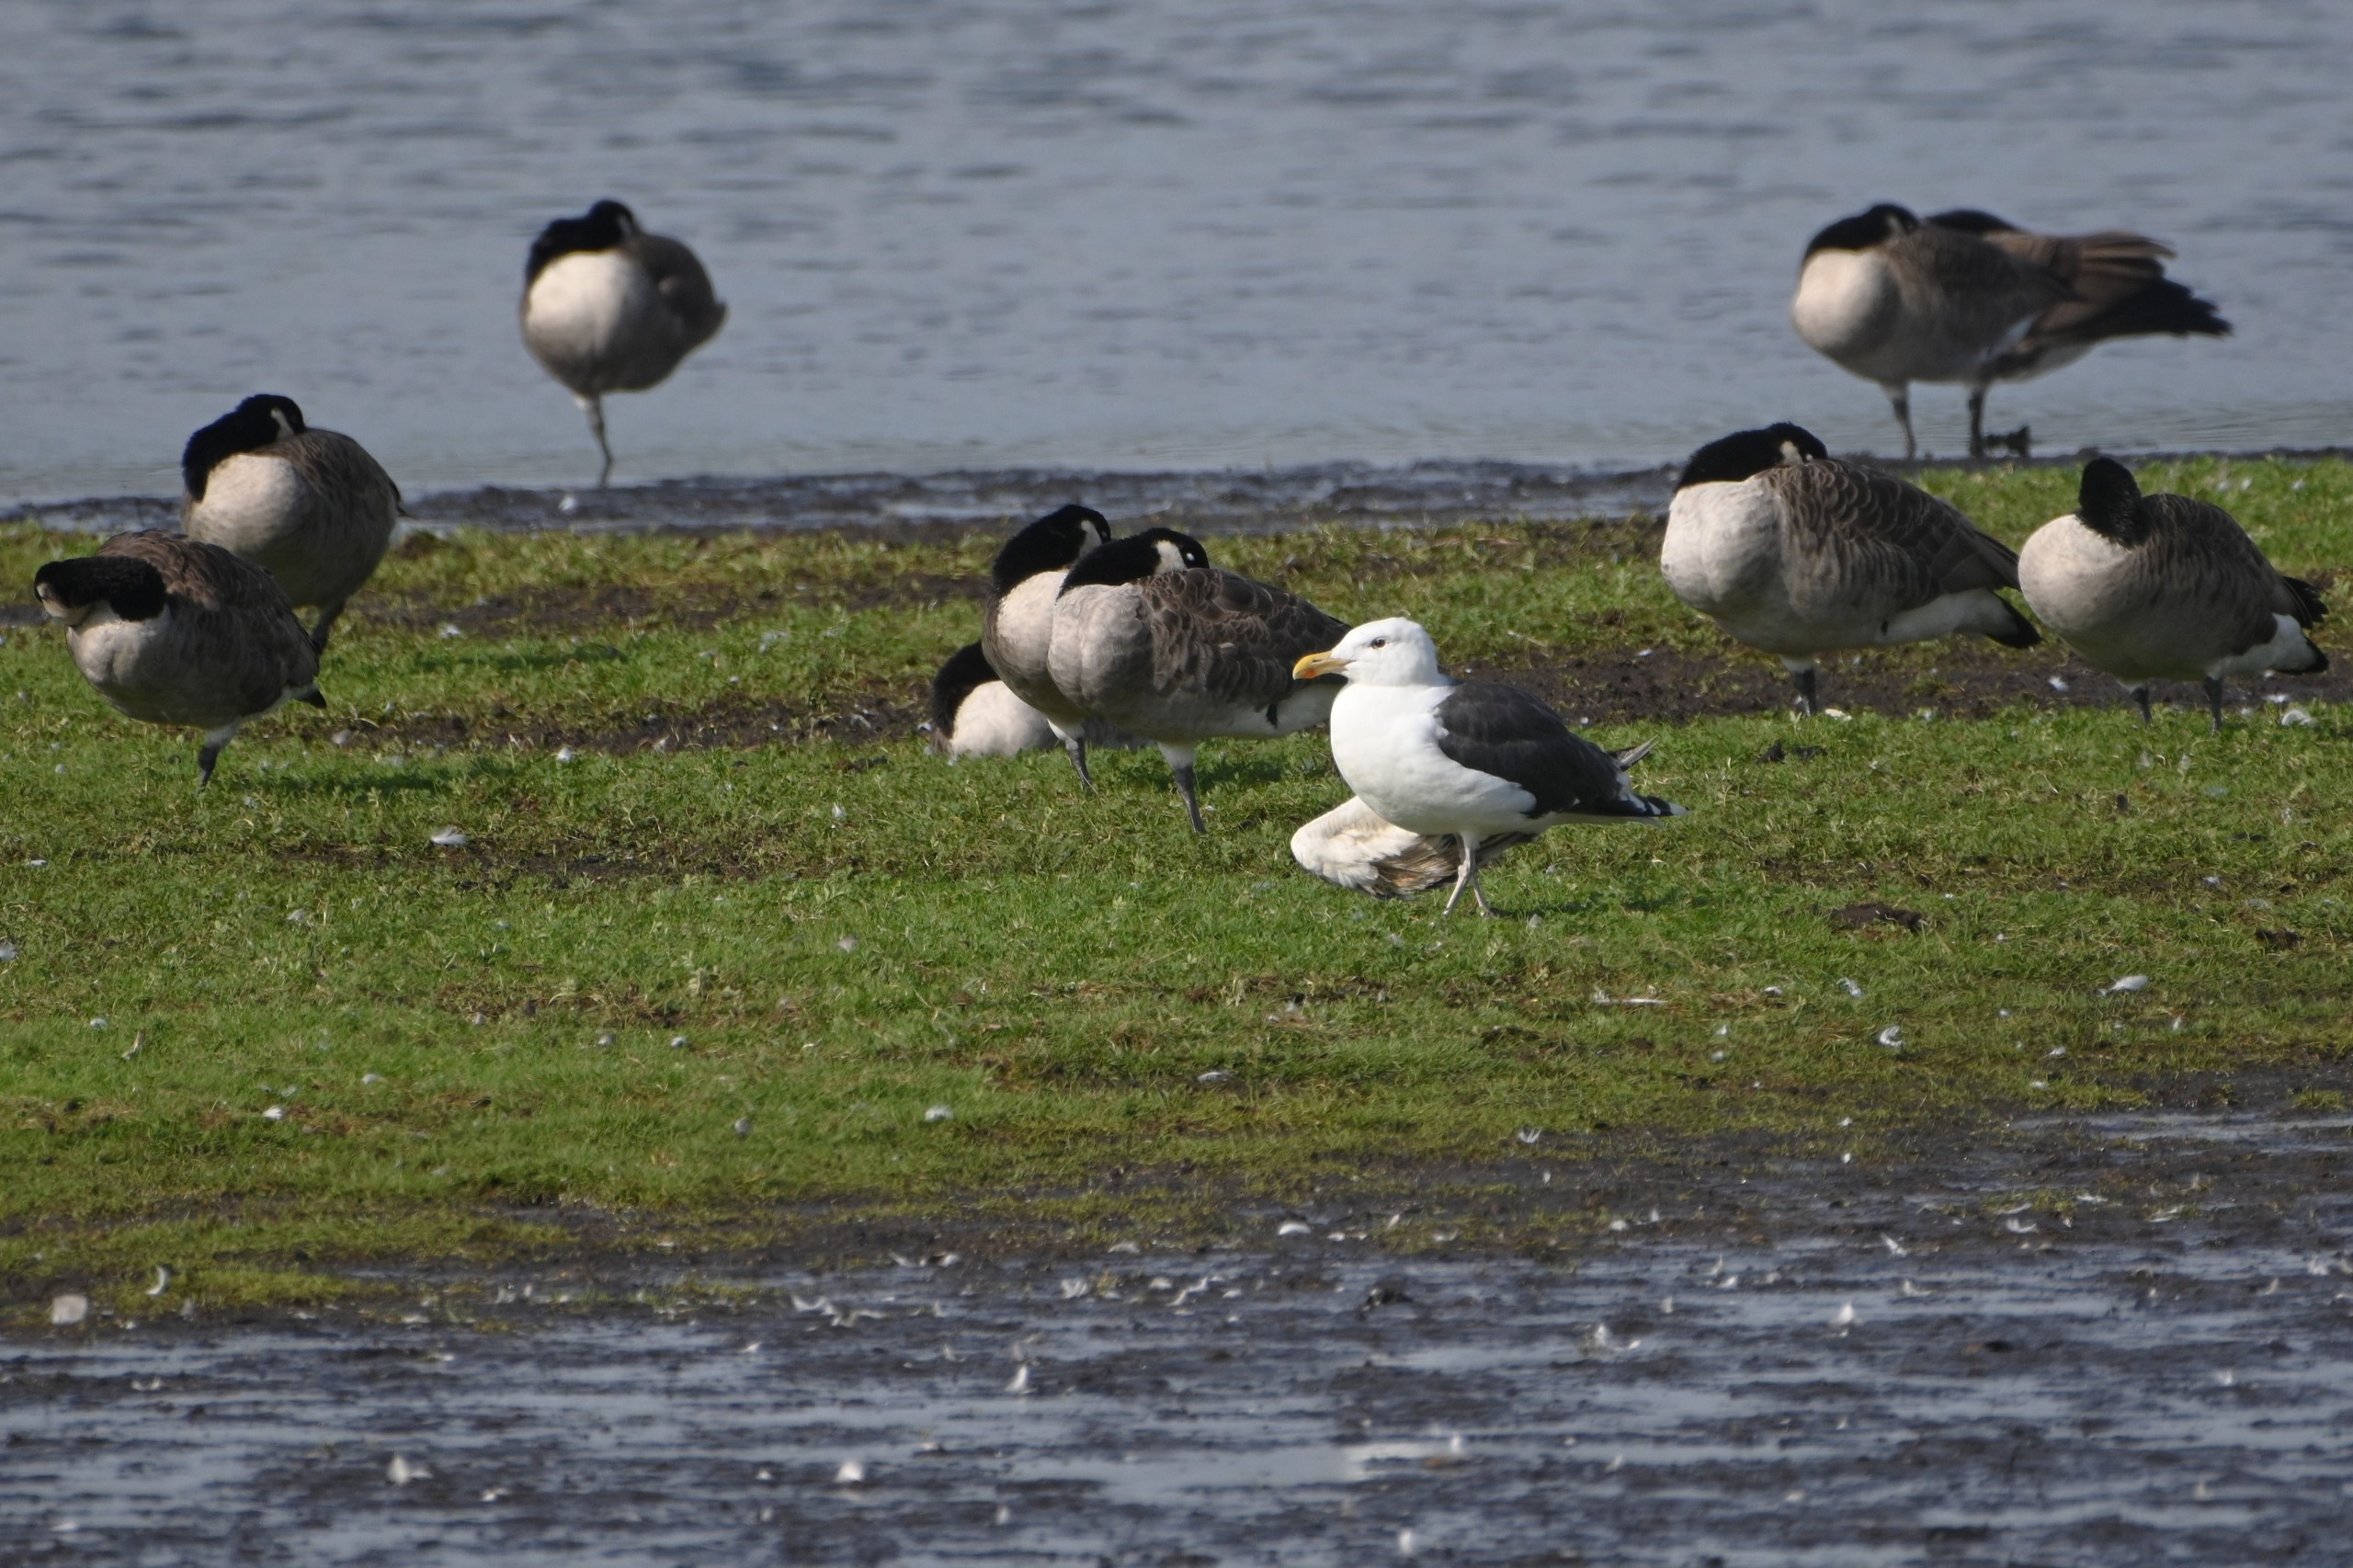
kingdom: Animalia
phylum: Chordata
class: Aves
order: Charadriiformes
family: Laridae
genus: Larus
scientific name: Larus marinus
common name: Svartbag
